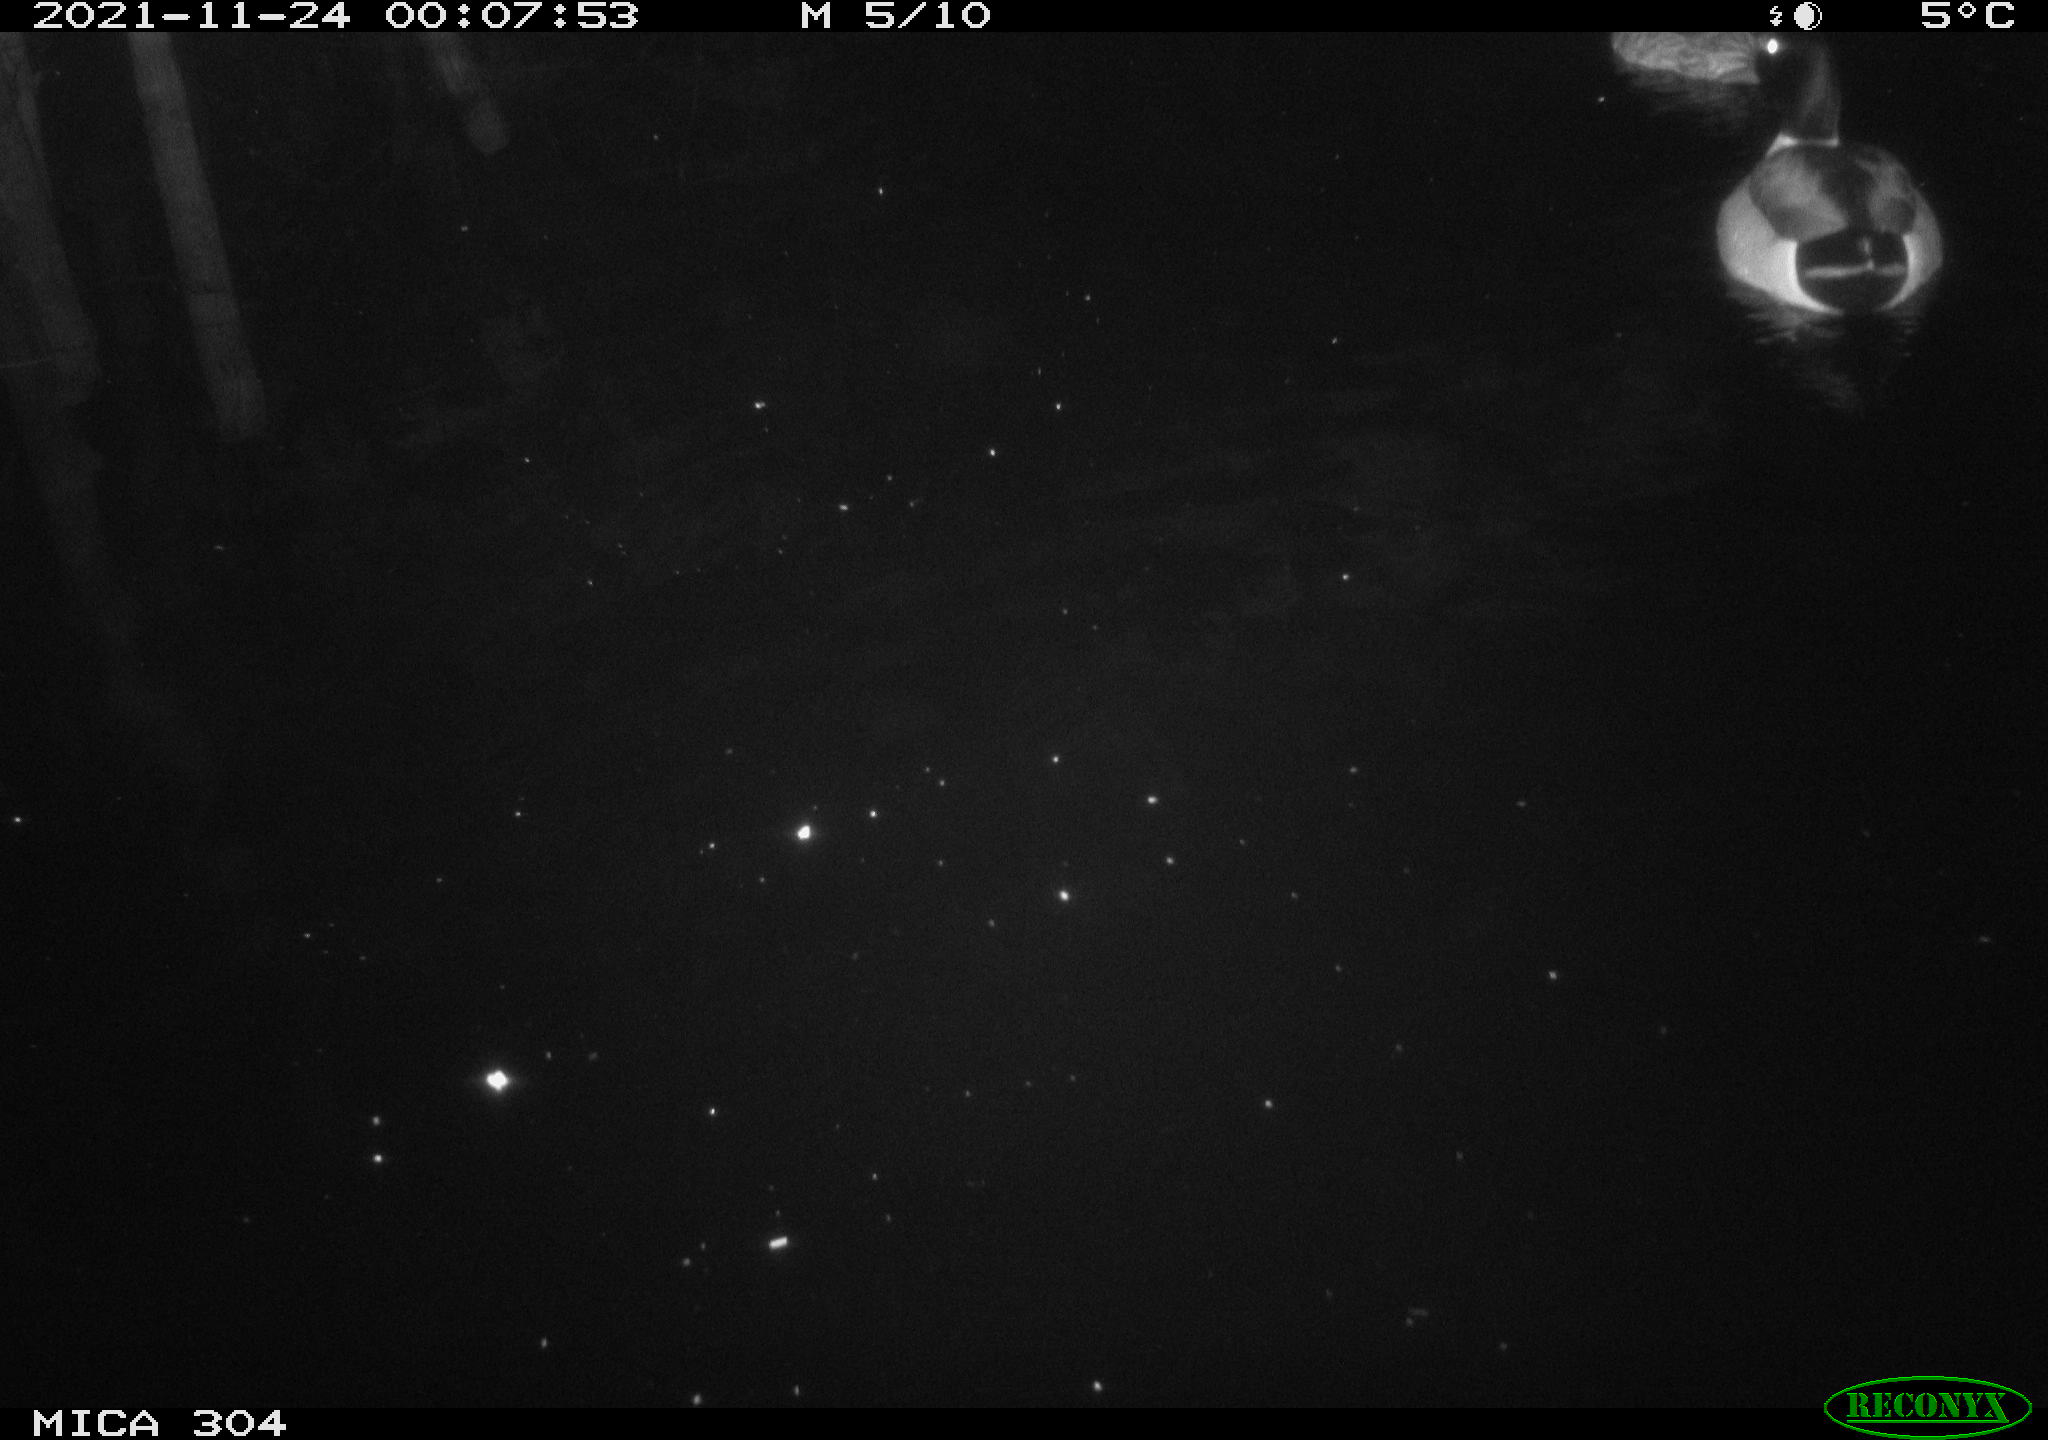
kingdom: Animalia
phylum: Chordata
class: Aves
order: Anseriformes
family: Anatidae
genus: Anas
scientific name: Anas platyrhynchos
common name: Mallard
